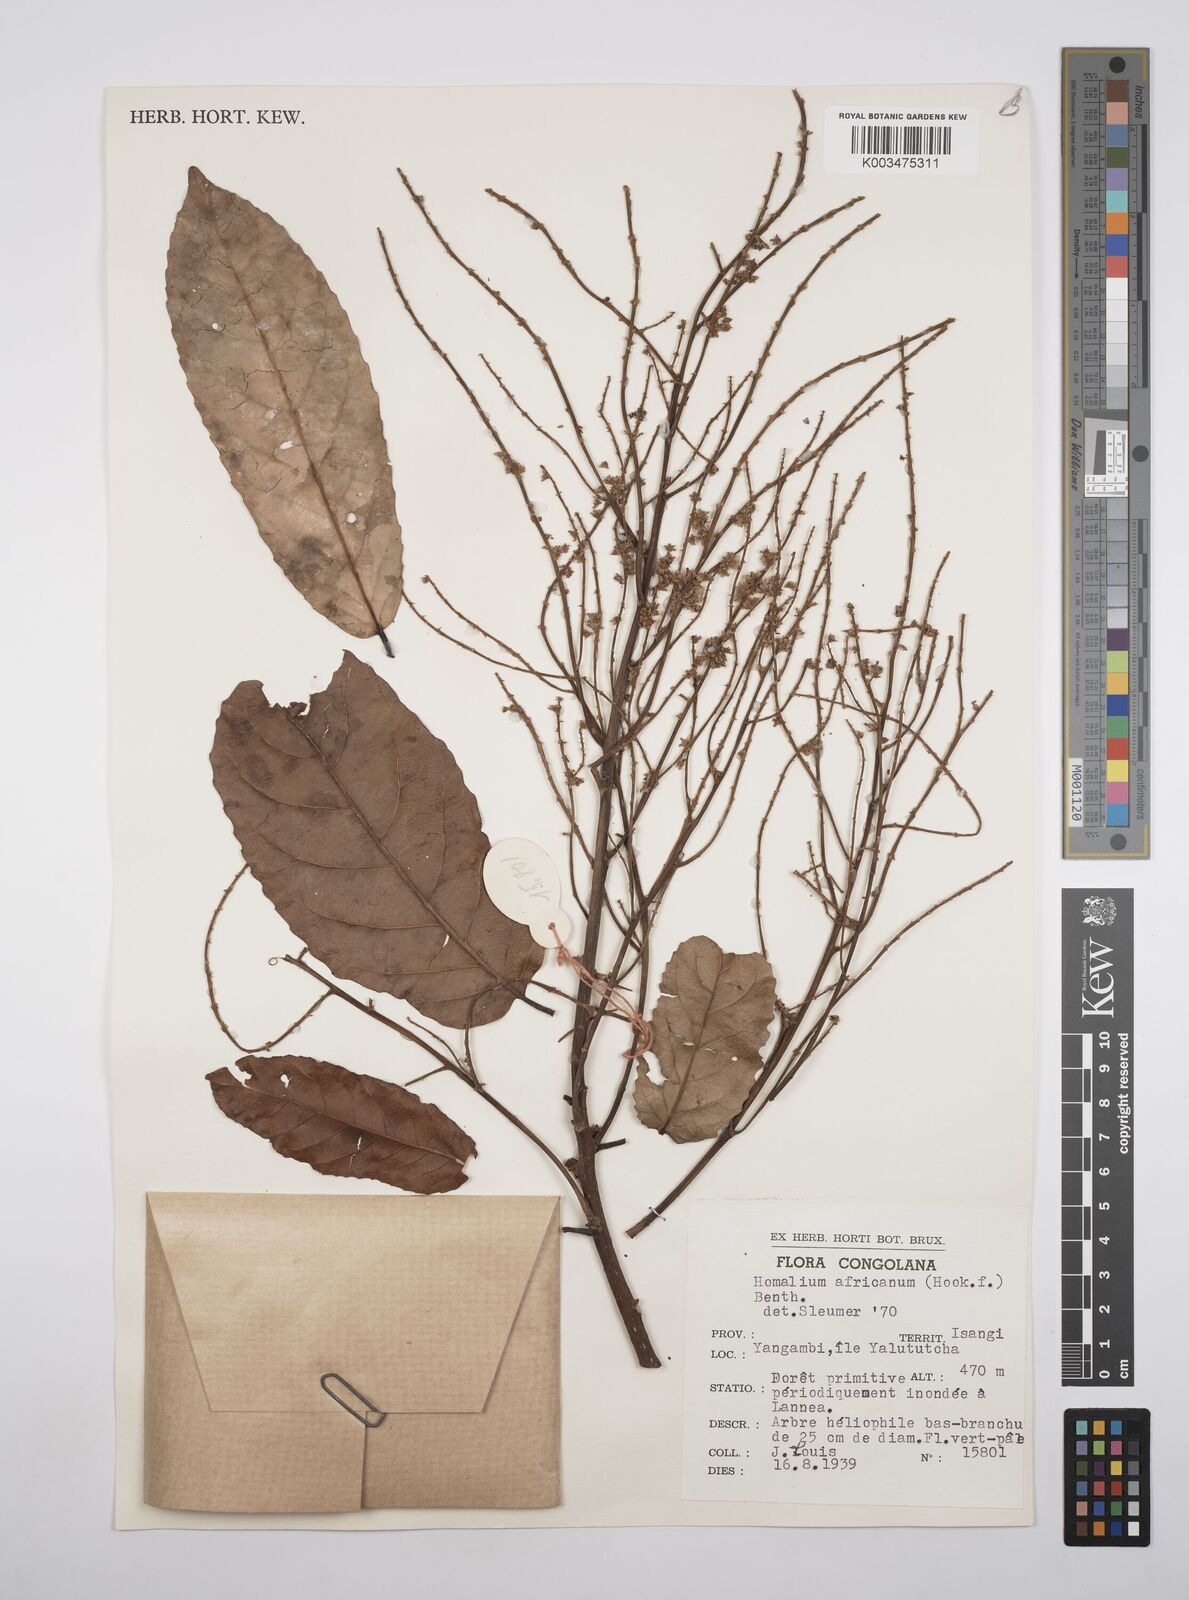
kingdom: Plantae
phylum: Tracheophyta
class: Magnoliopsida
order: Malpighiales
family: Salicaceae
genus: Homalium
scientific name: Homalium africanum
